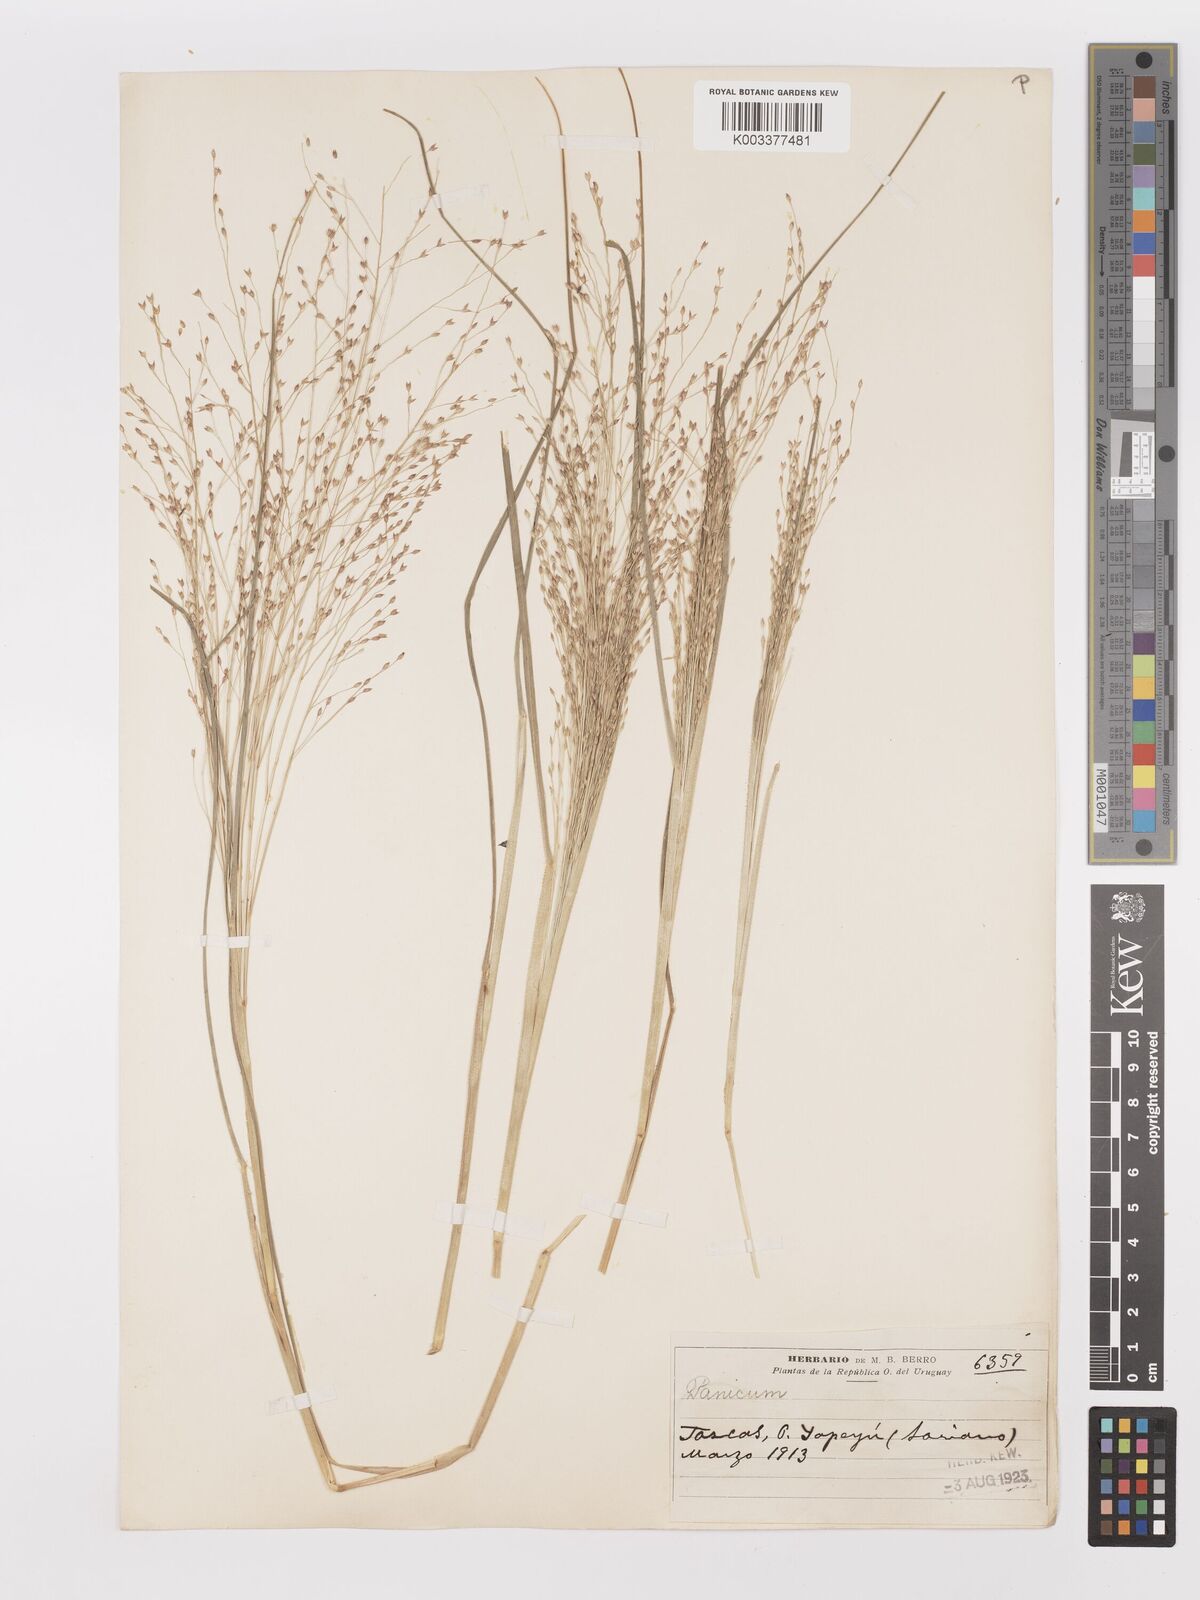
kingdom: Plantae
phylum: Tracheophyta
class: Liliopsida
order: Poales
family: Poaceae
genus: Panicum
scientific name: Panicum bergii
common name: Berg's panicgrass
